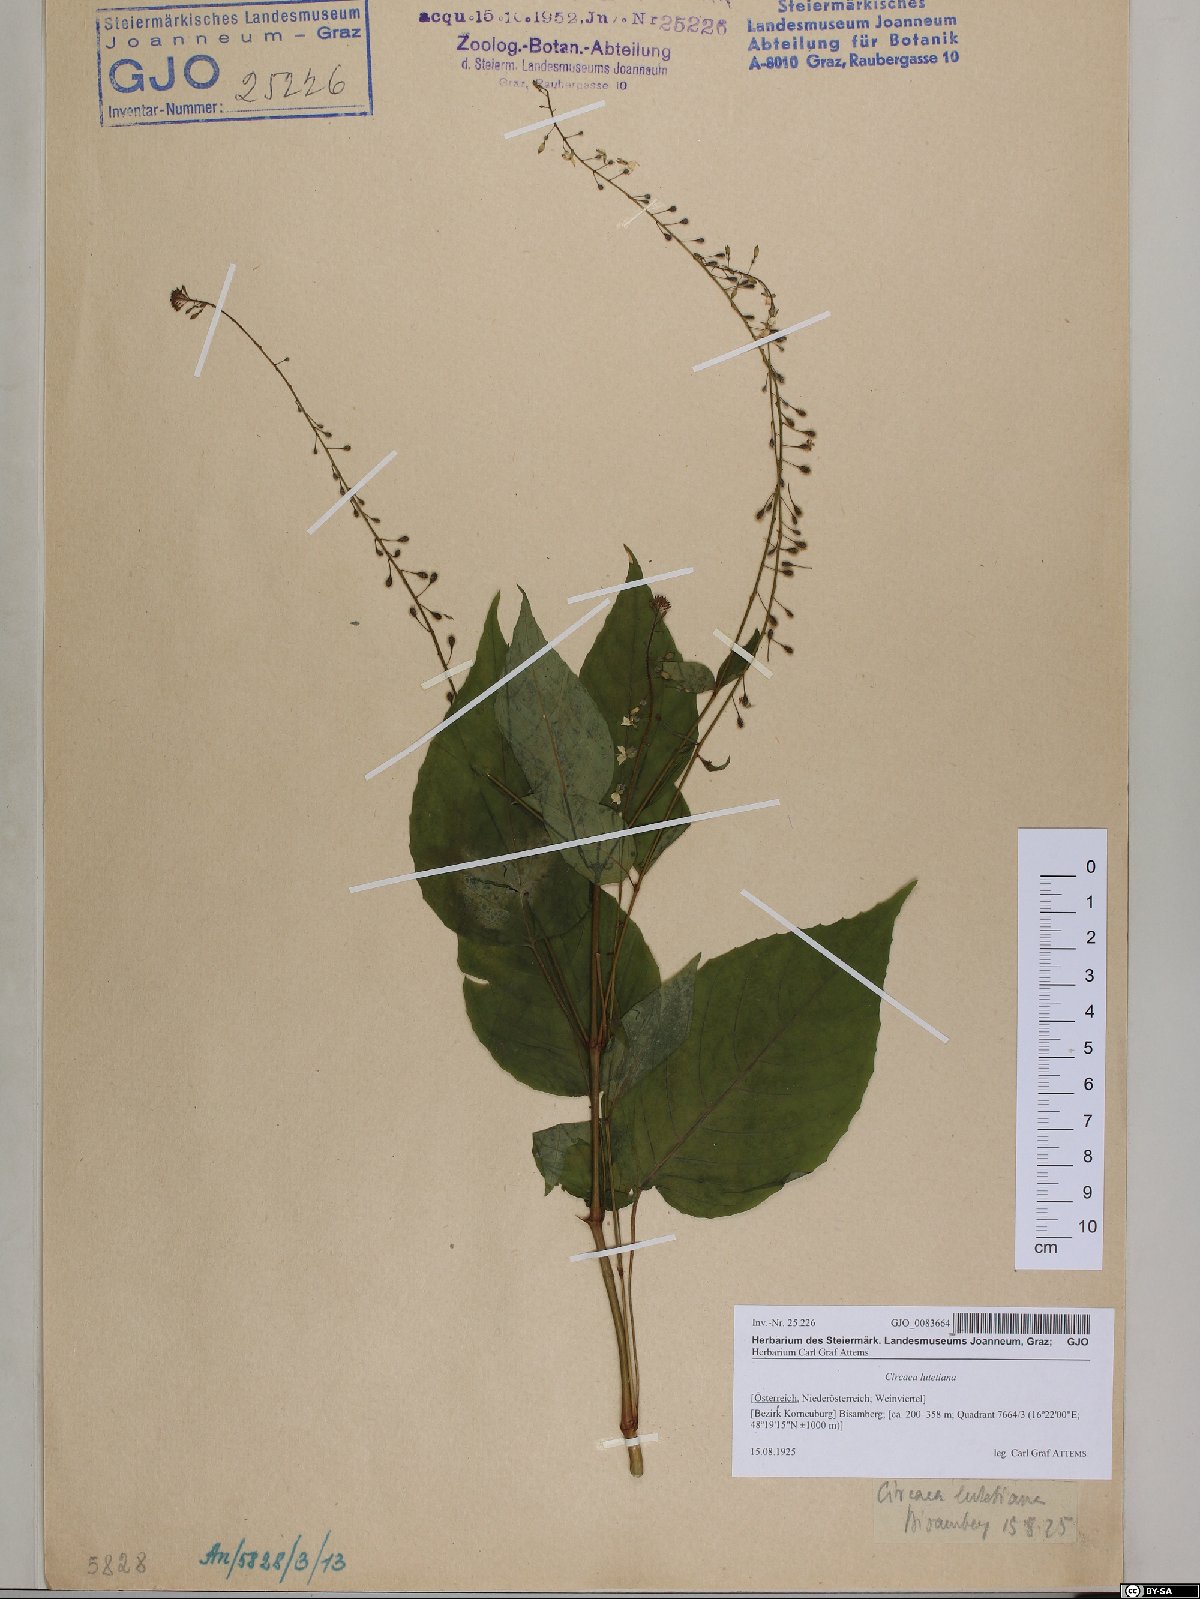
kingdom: Plantae
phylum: Tracheophyta
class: Magnoliopsida
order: Myrtales
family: Onagraceae
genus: Circaea
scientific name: Circaea lutetiana
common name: Enchanter's-nightshade
